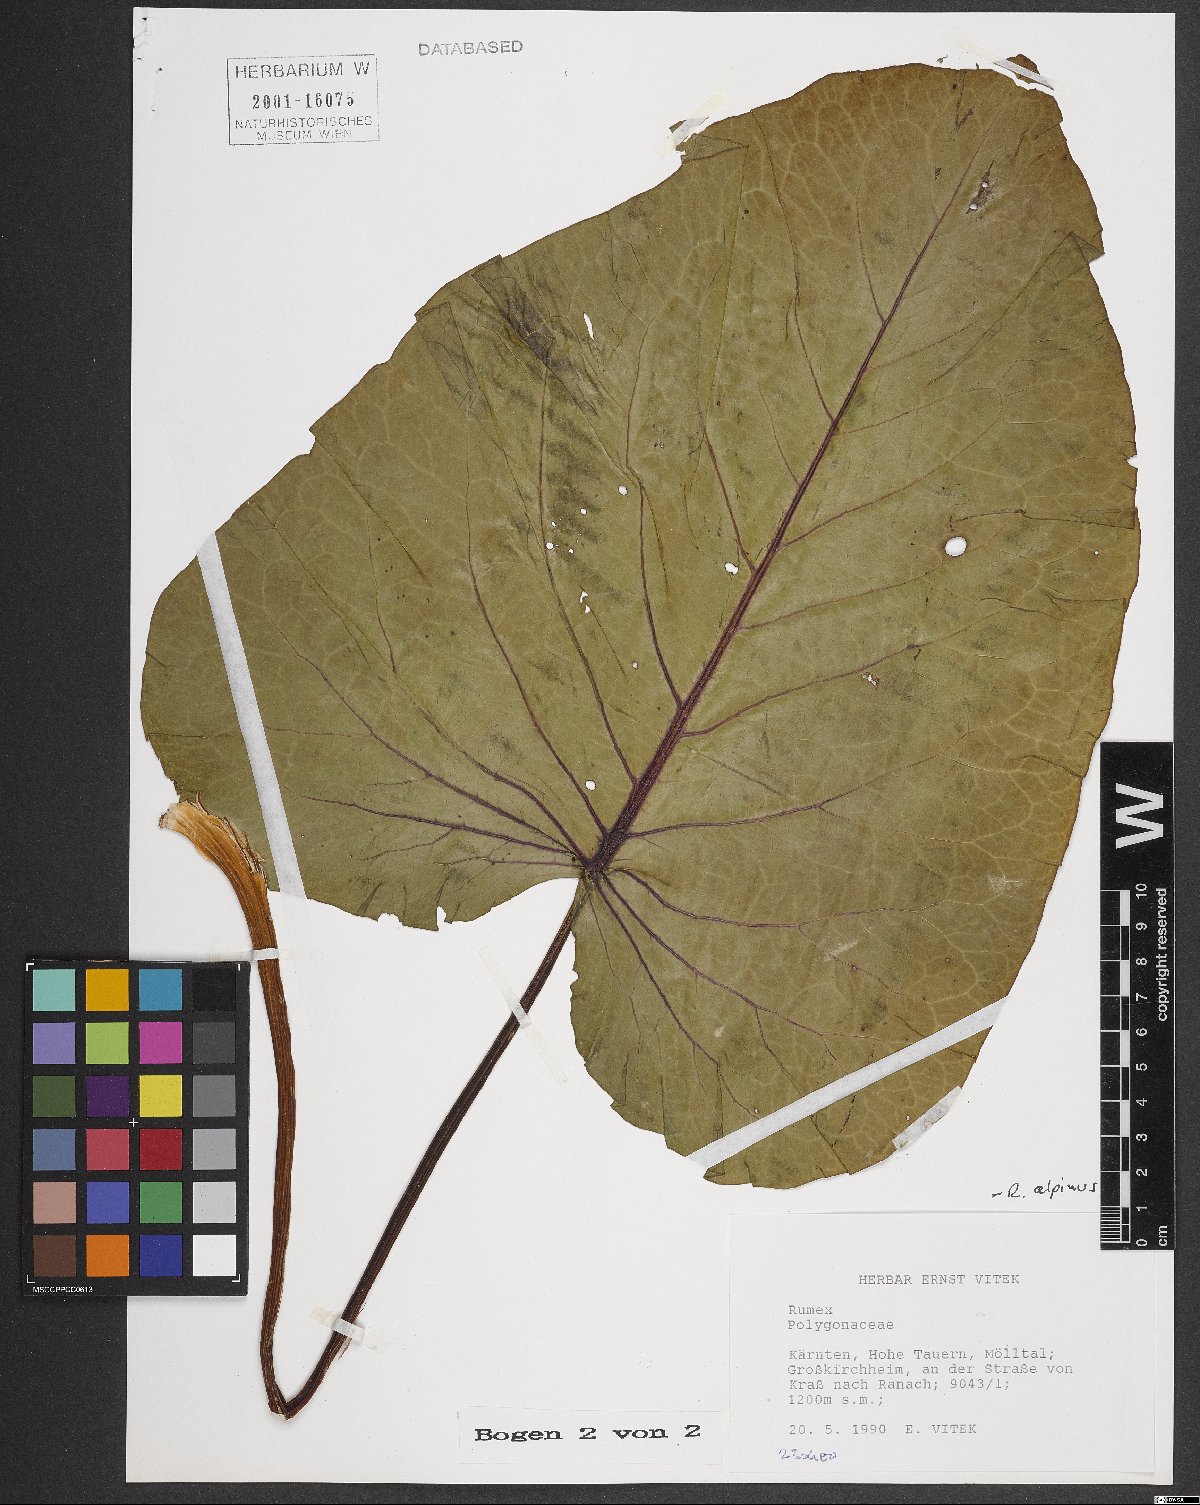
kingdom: Plantae
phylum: Tracheophyta
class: Magnoliopsida
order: Caryophyllales
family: Polygonaceae
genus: Rumex
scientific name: Rumex alpinus
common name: Alpine dock
